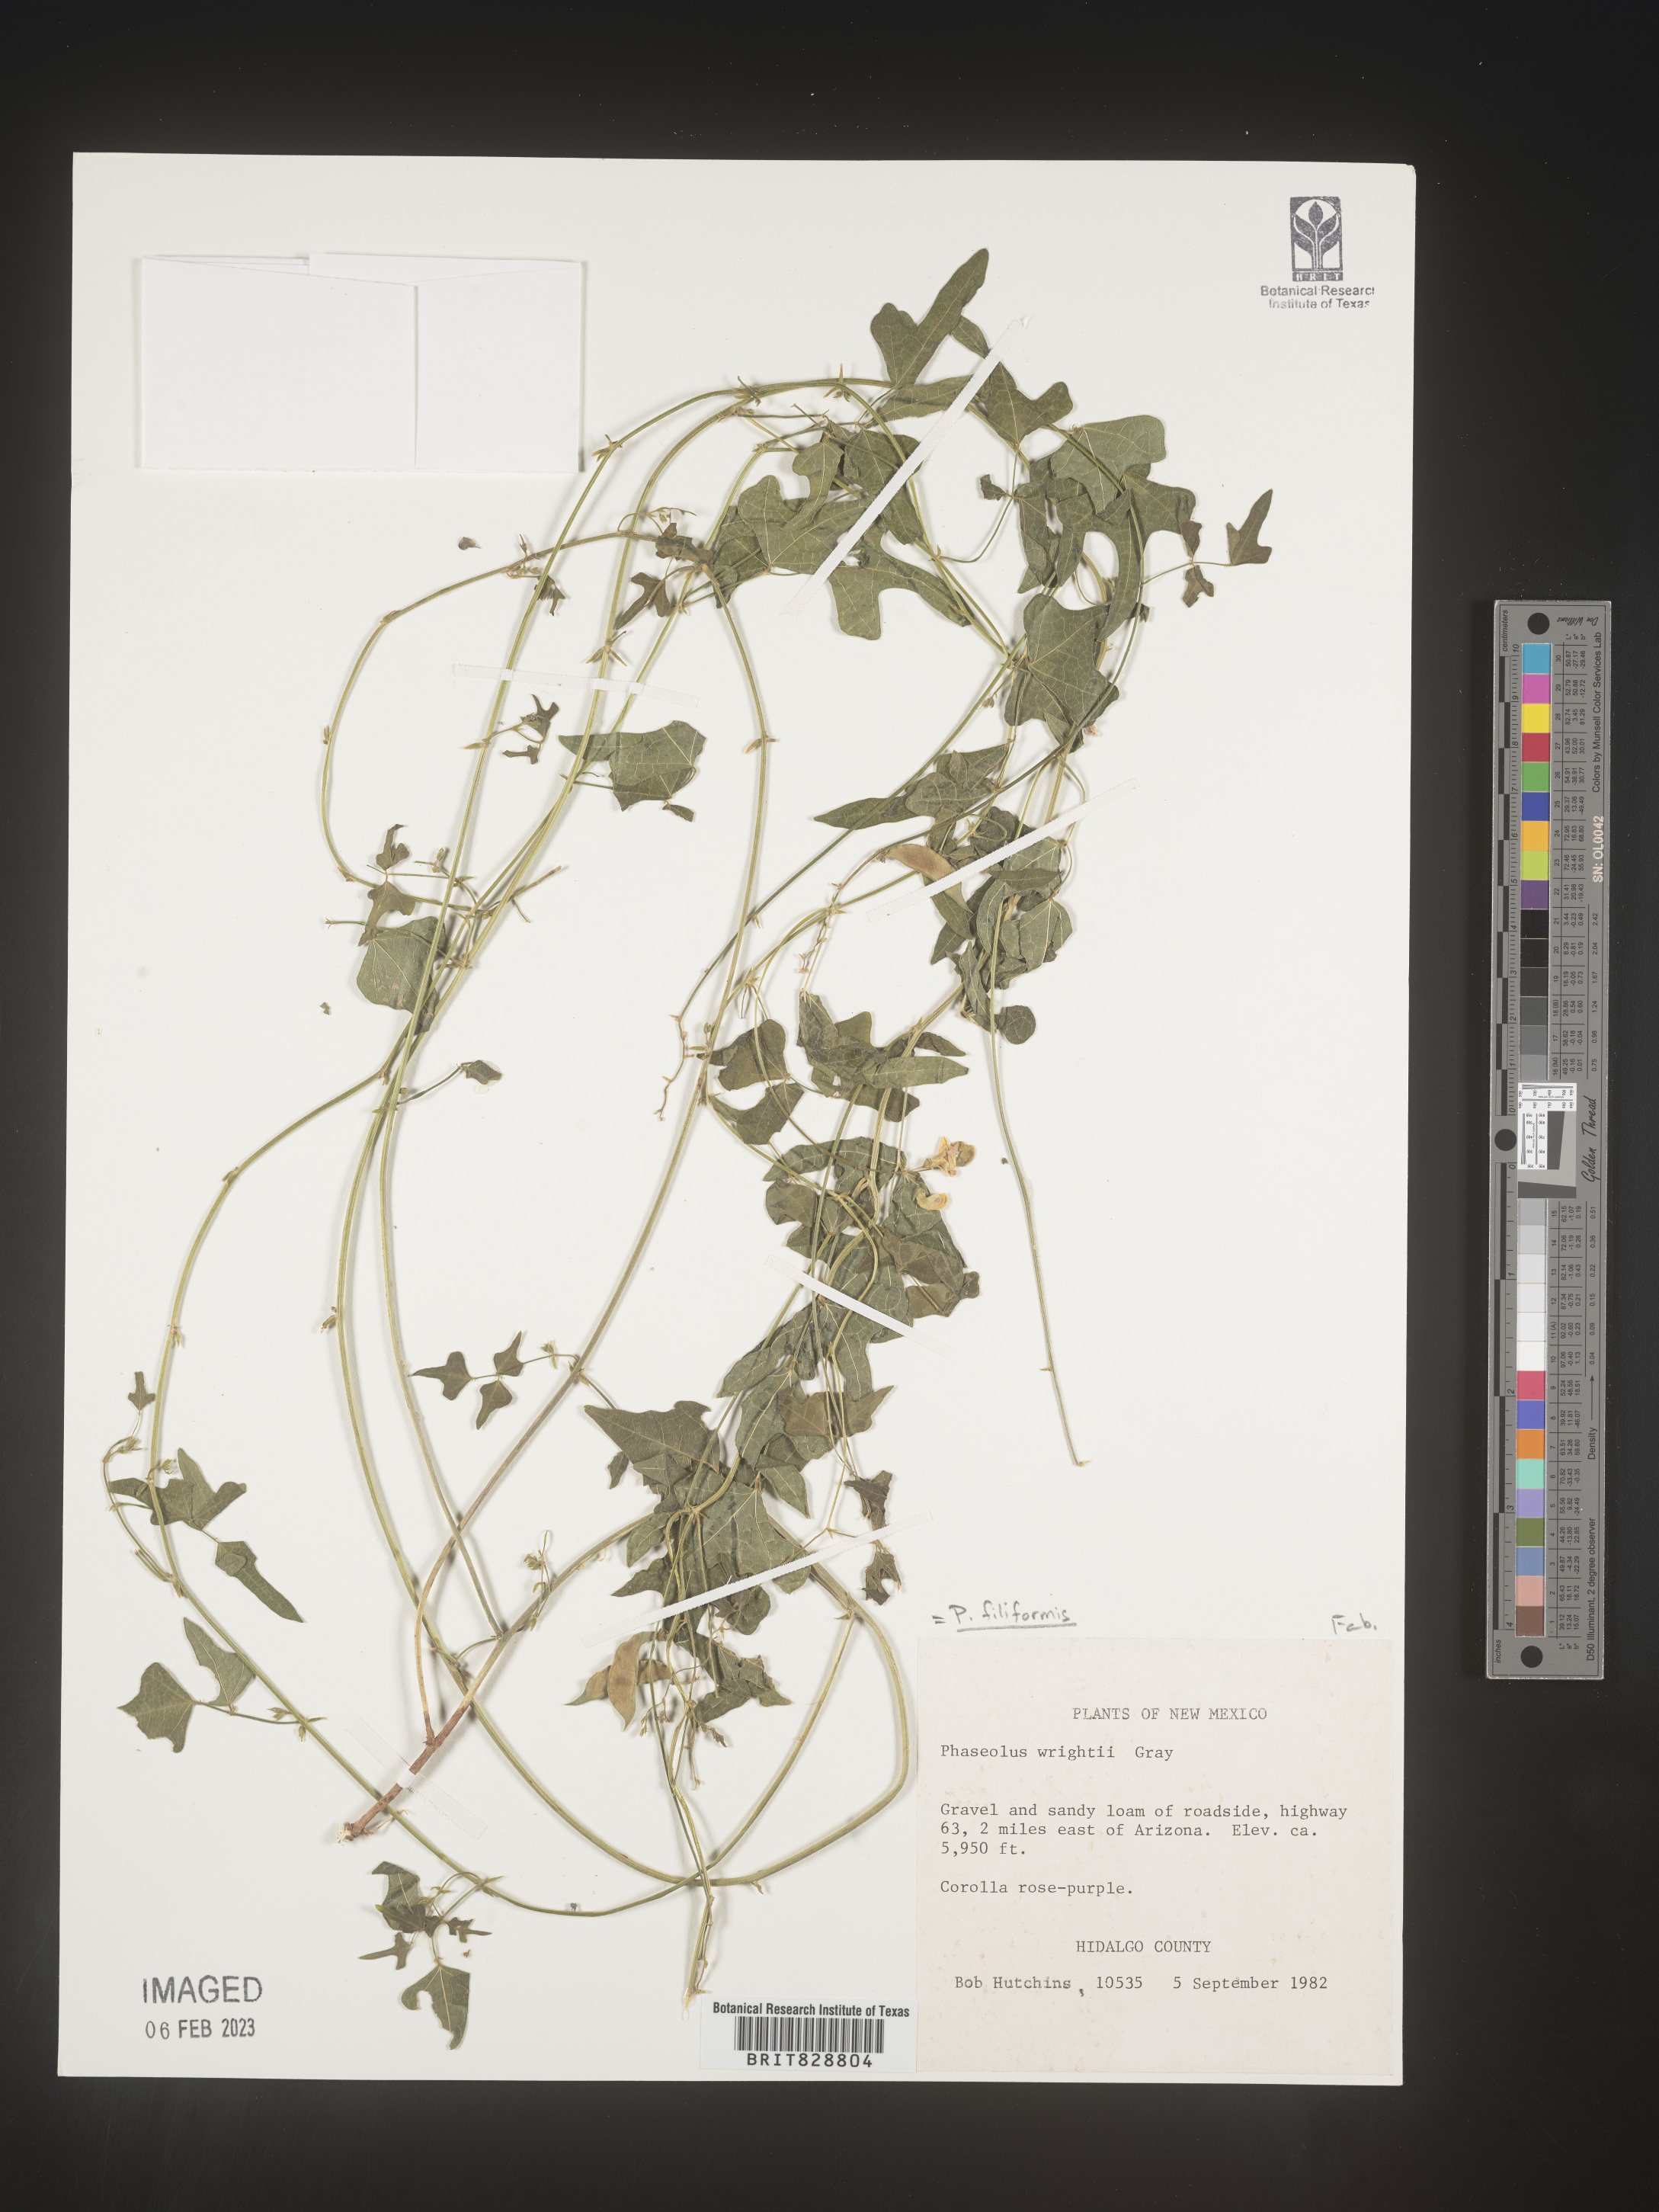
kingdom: Plantae
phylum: Tracheophyta
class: Magnoliopsida
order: Fabales
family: Fabaceae
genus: Phaseolus
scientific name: Phaseolus
